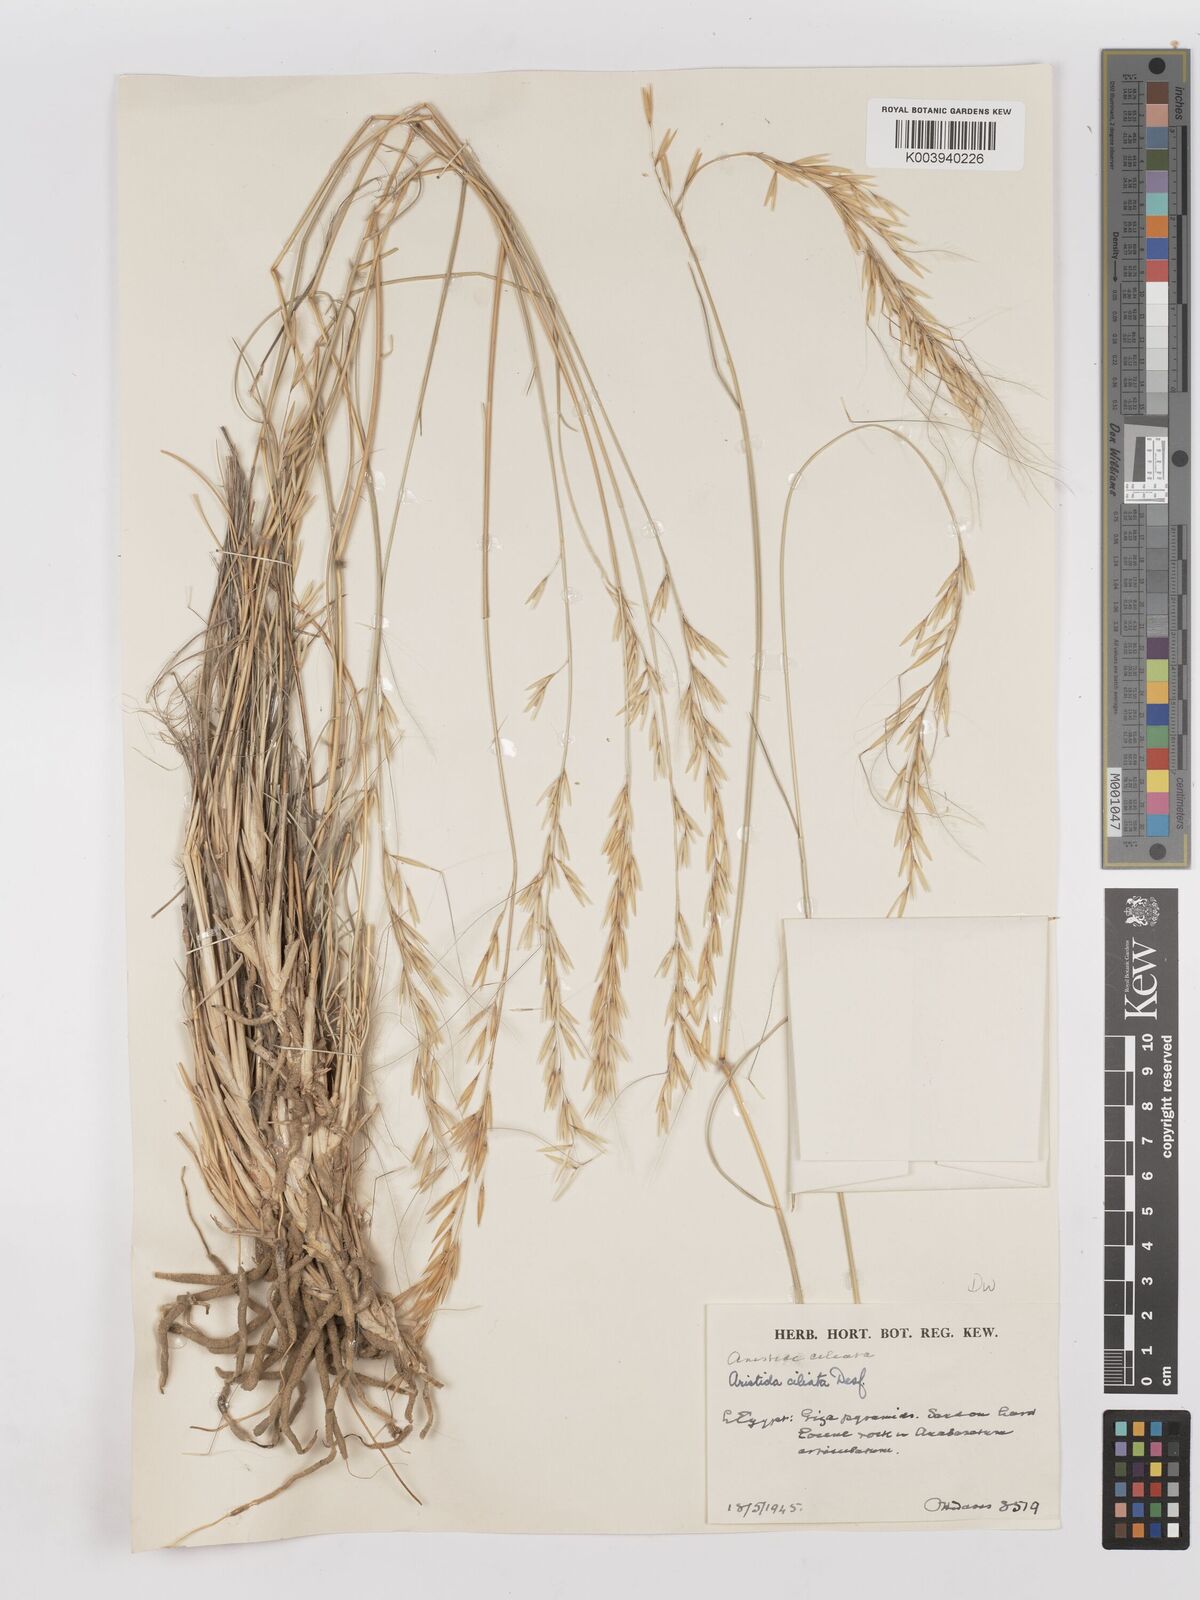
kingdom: Plantae
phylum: Tracheophyta
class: Liliopsida
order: Poales
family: Poaceae
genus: Stipagrostis
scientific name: Stipagrostis ciliata
